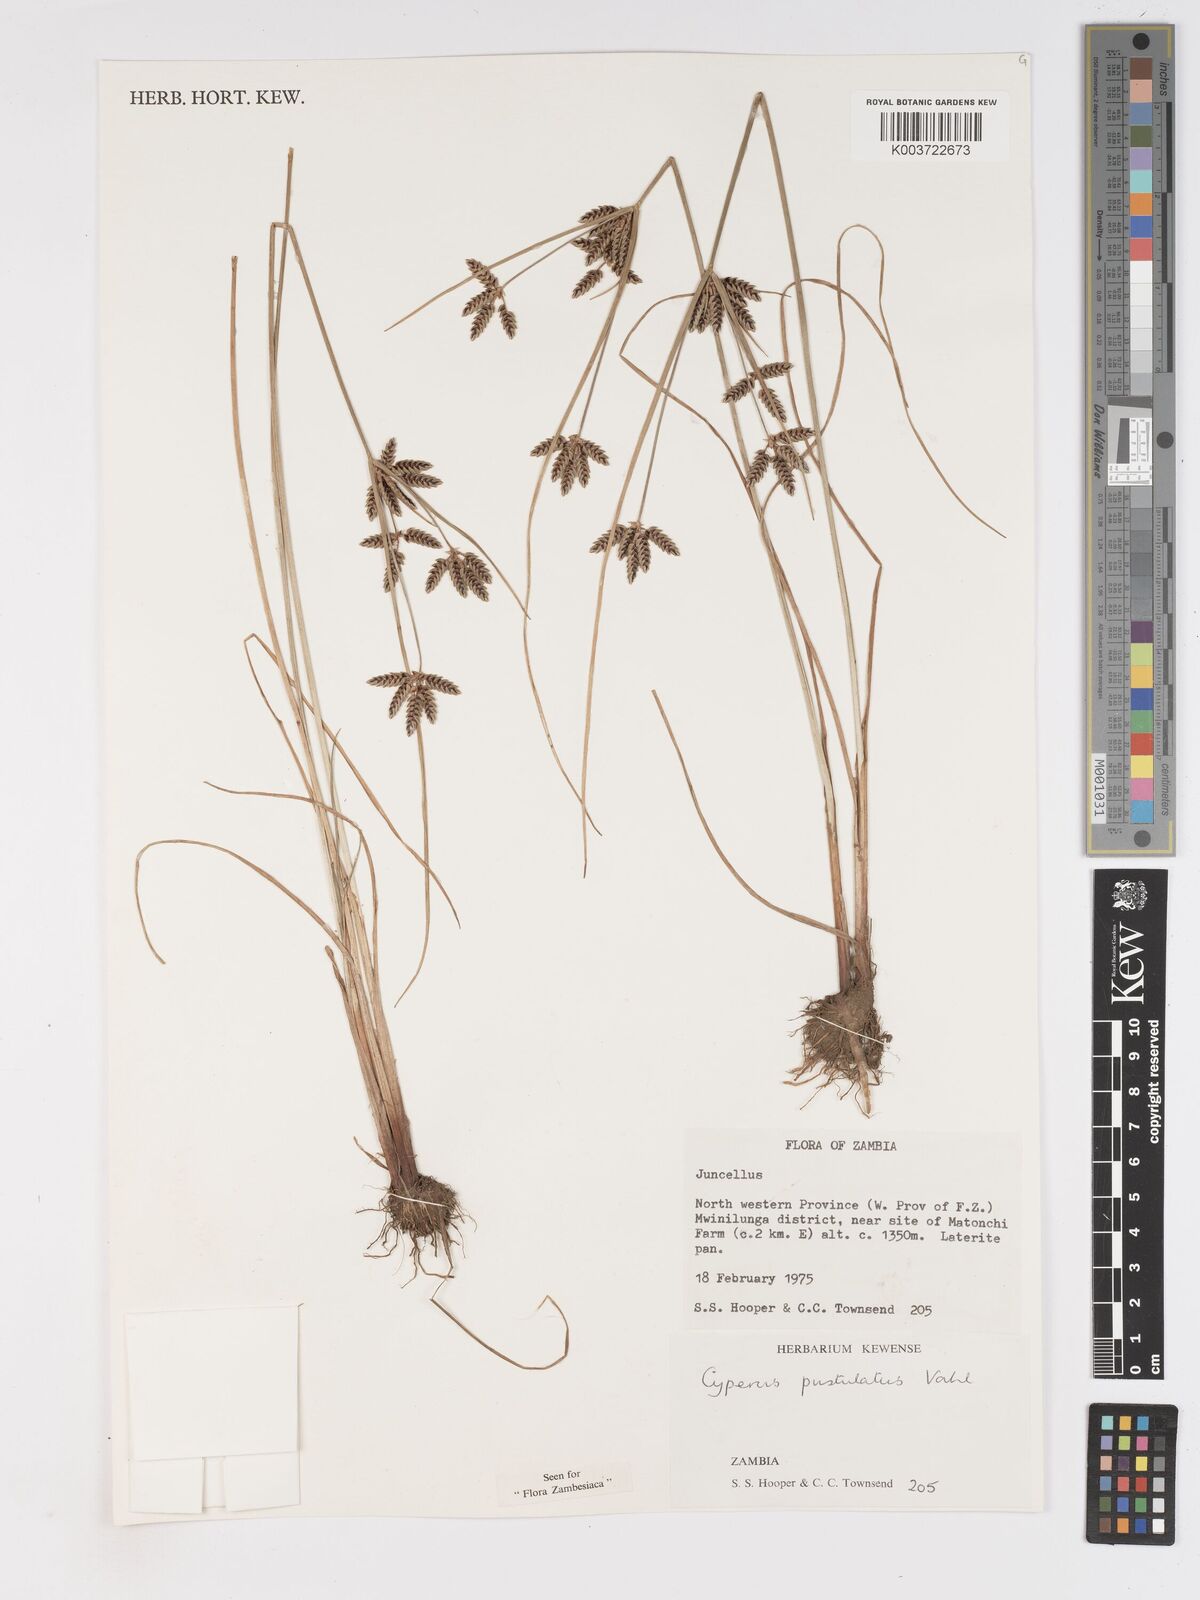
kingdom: Plantae
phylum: Tracheophyta
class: Liliopsida
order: Poales
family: Cyperaceae
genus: Cyperus
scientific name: Cyperus pustulatus
